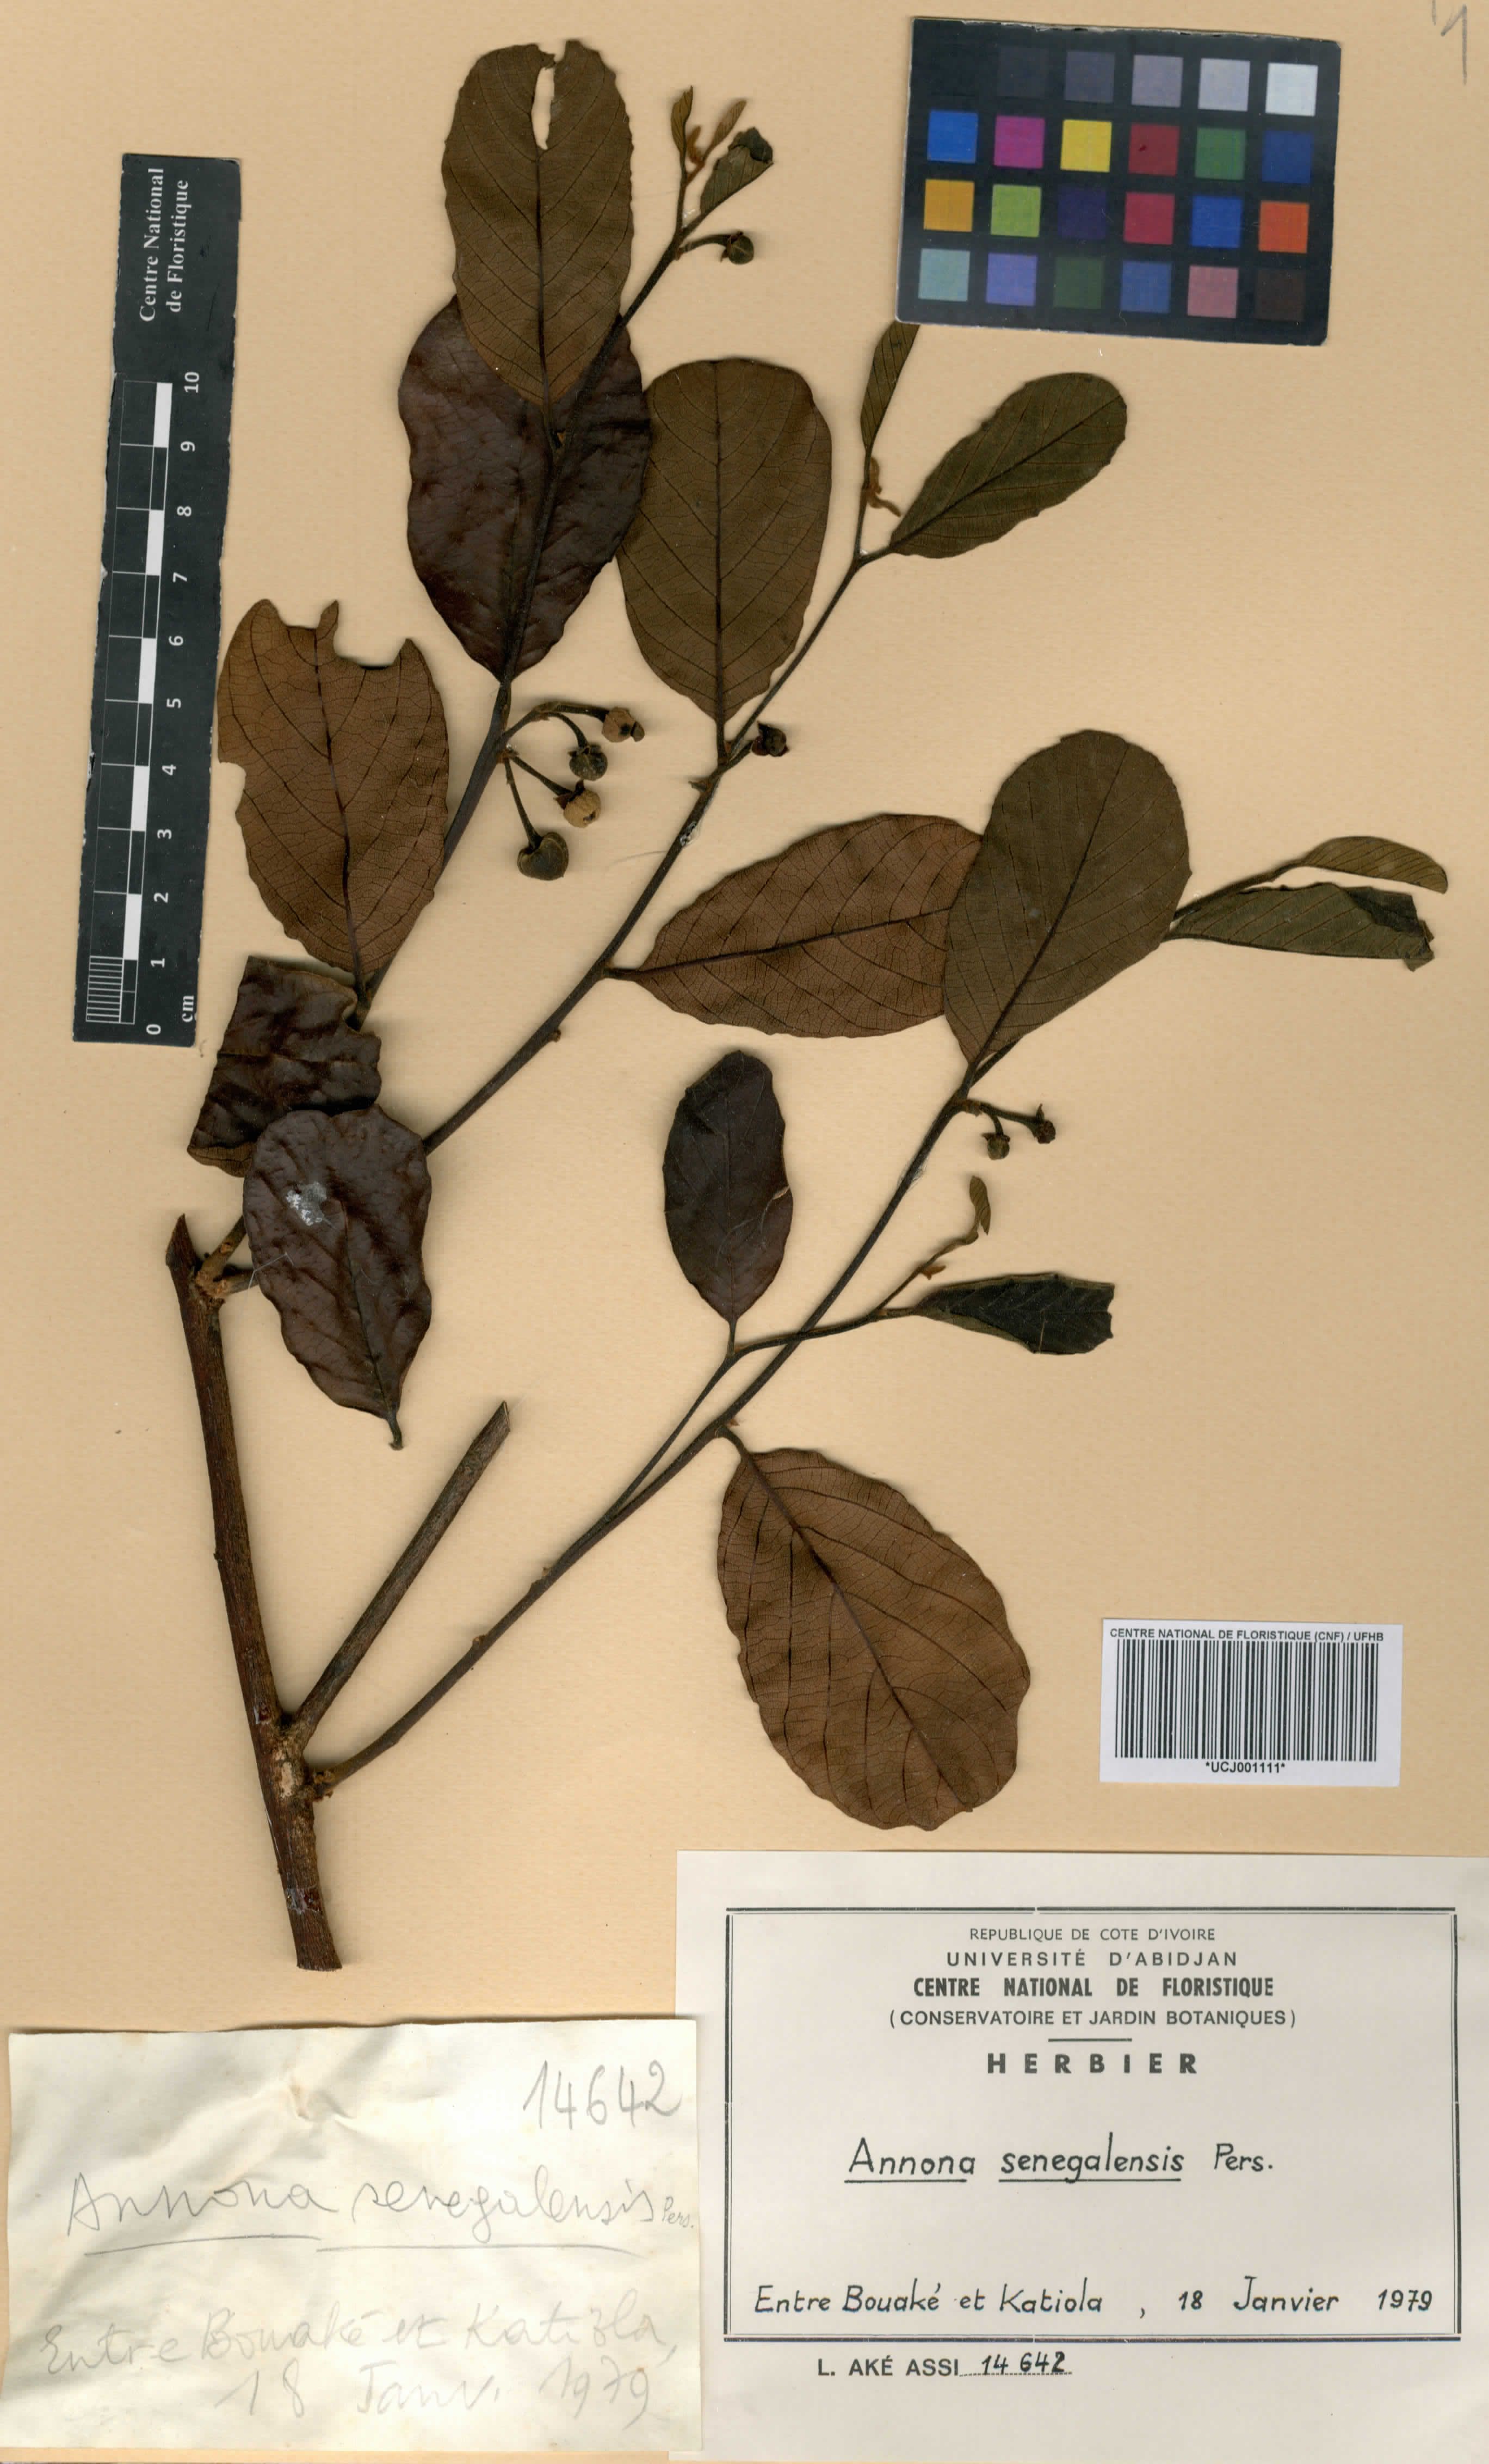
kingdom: Plantae
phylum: Tracheophyta
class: Magnoliopsida
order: Magnoliales
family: Annonaceae
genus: Annona
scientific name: Annona senegalensis
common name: Wild custard-apple
